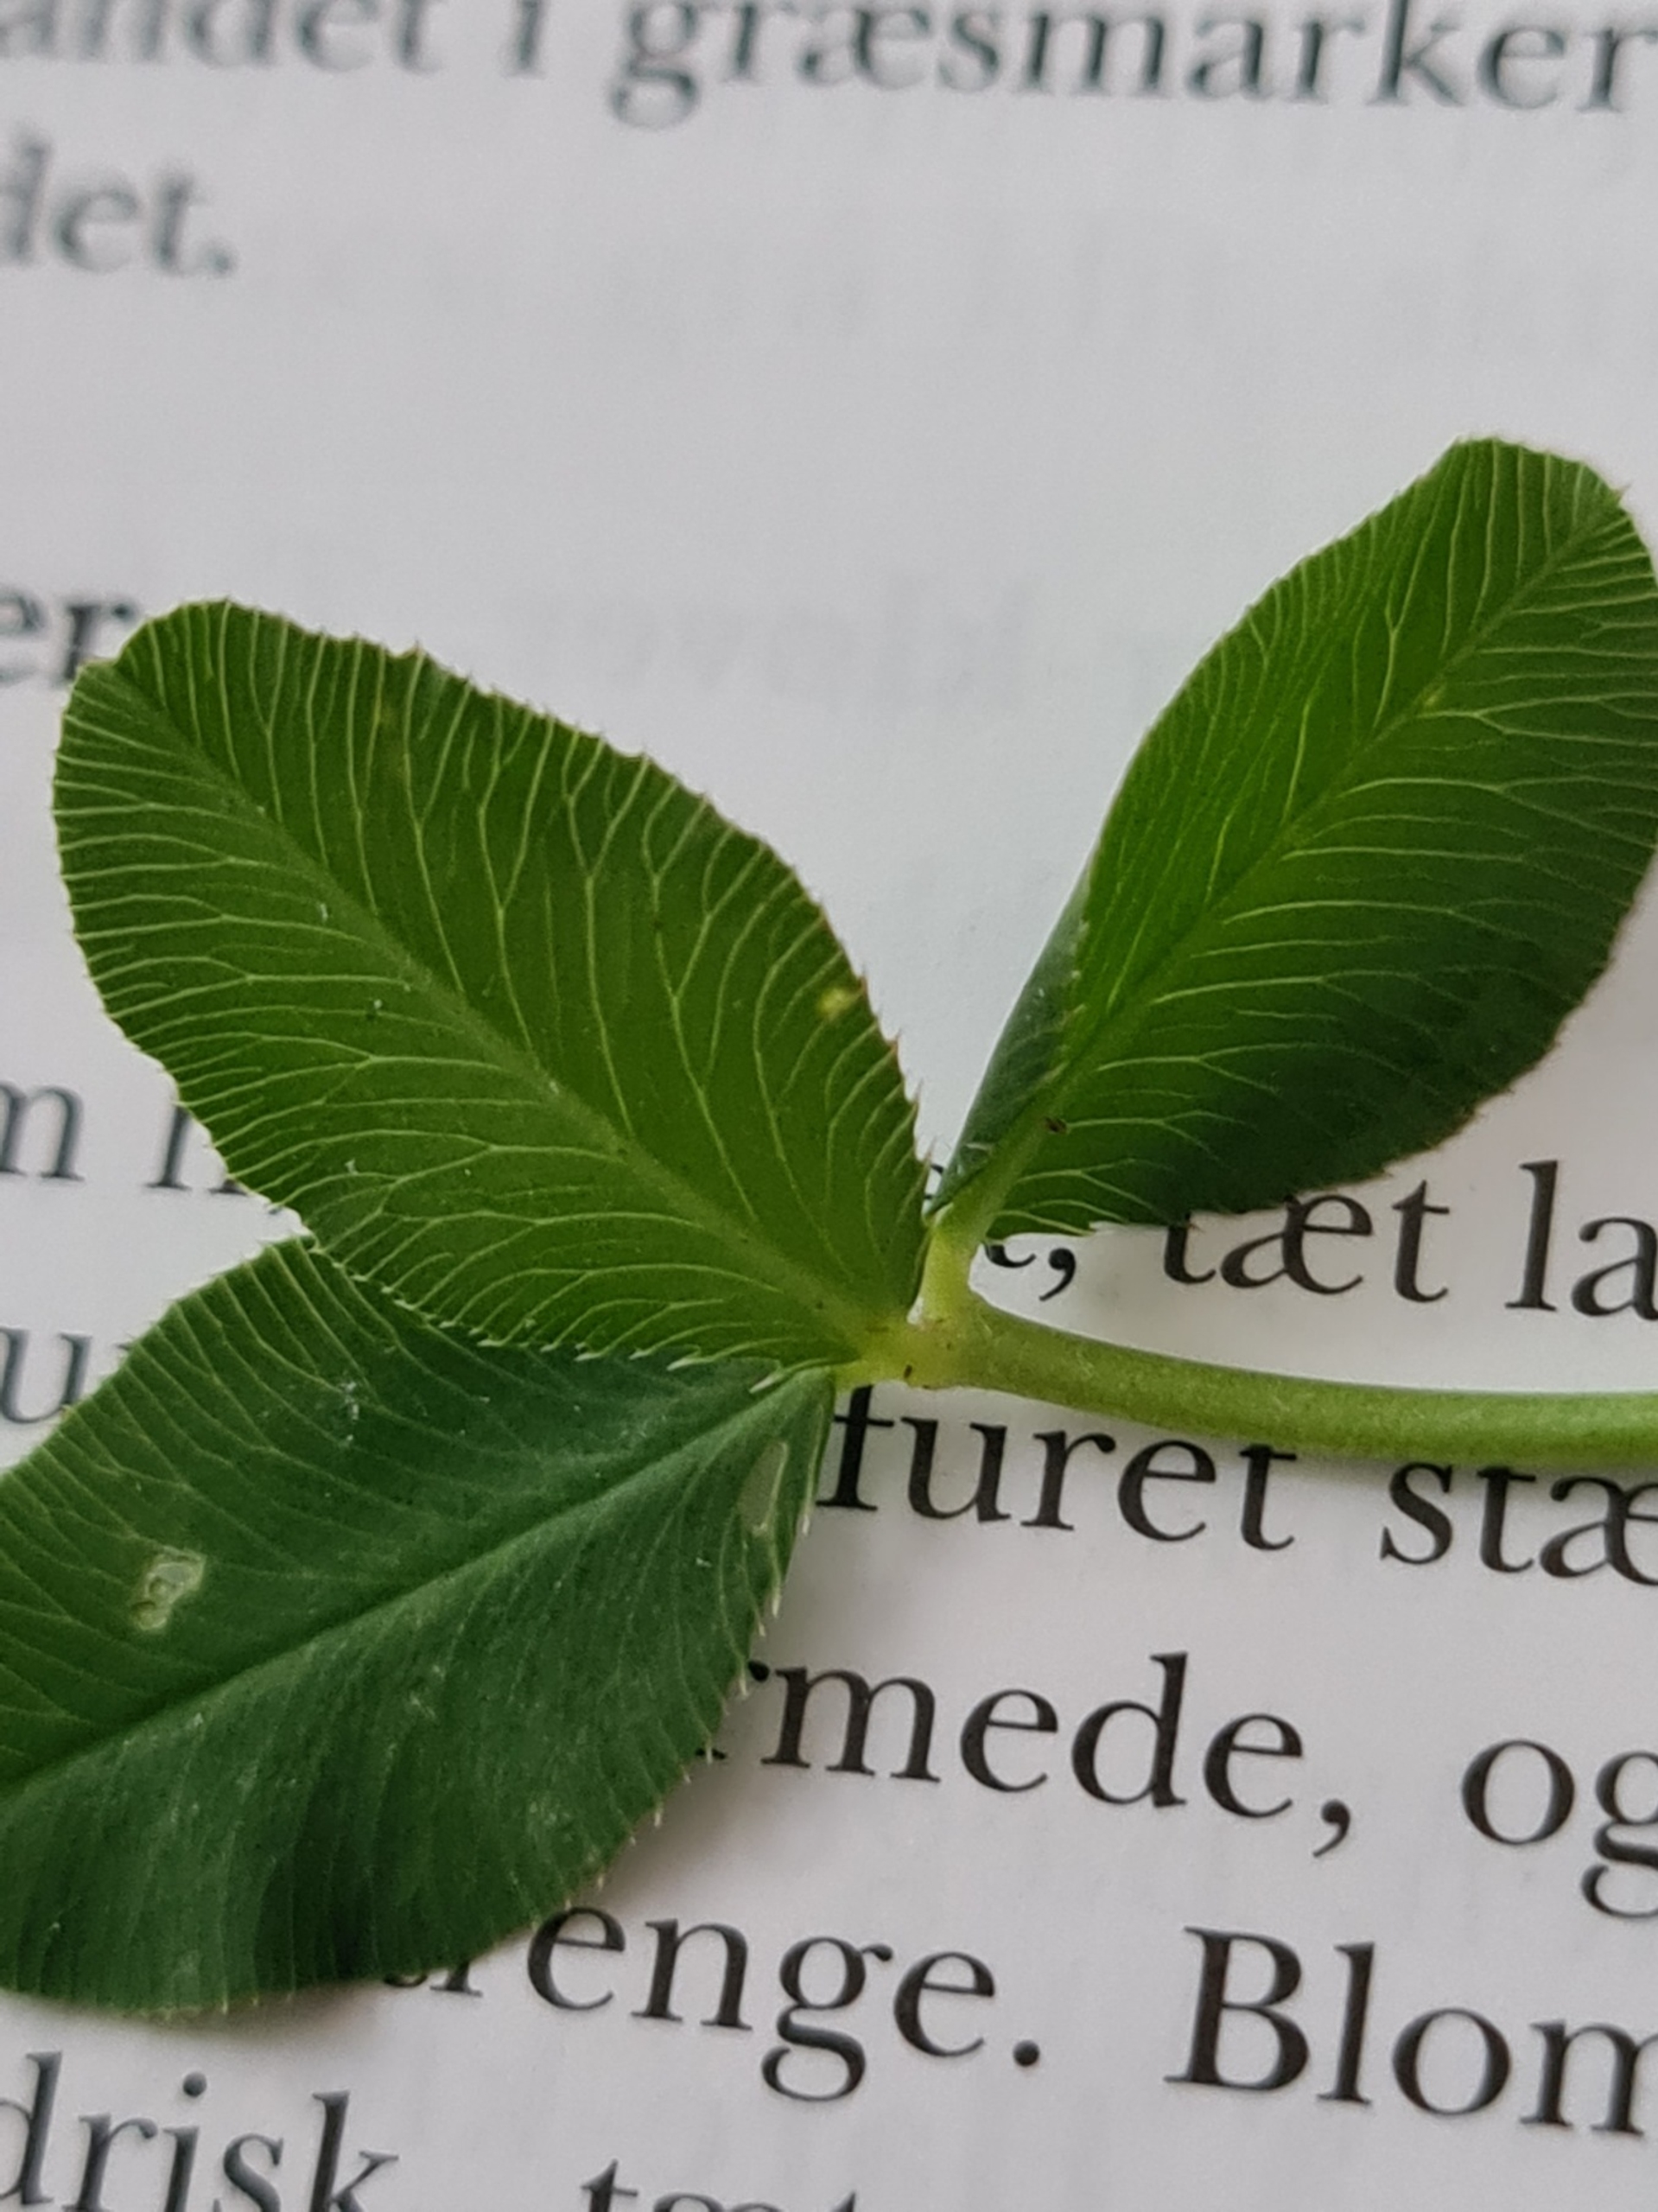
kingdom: Plantae
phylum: Tracheophyta
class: Magnoliopsida
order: Fabales
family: Fabaceae
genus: Trifolium
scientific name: Trifolium fragiferum
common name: Jordbær-kløver
